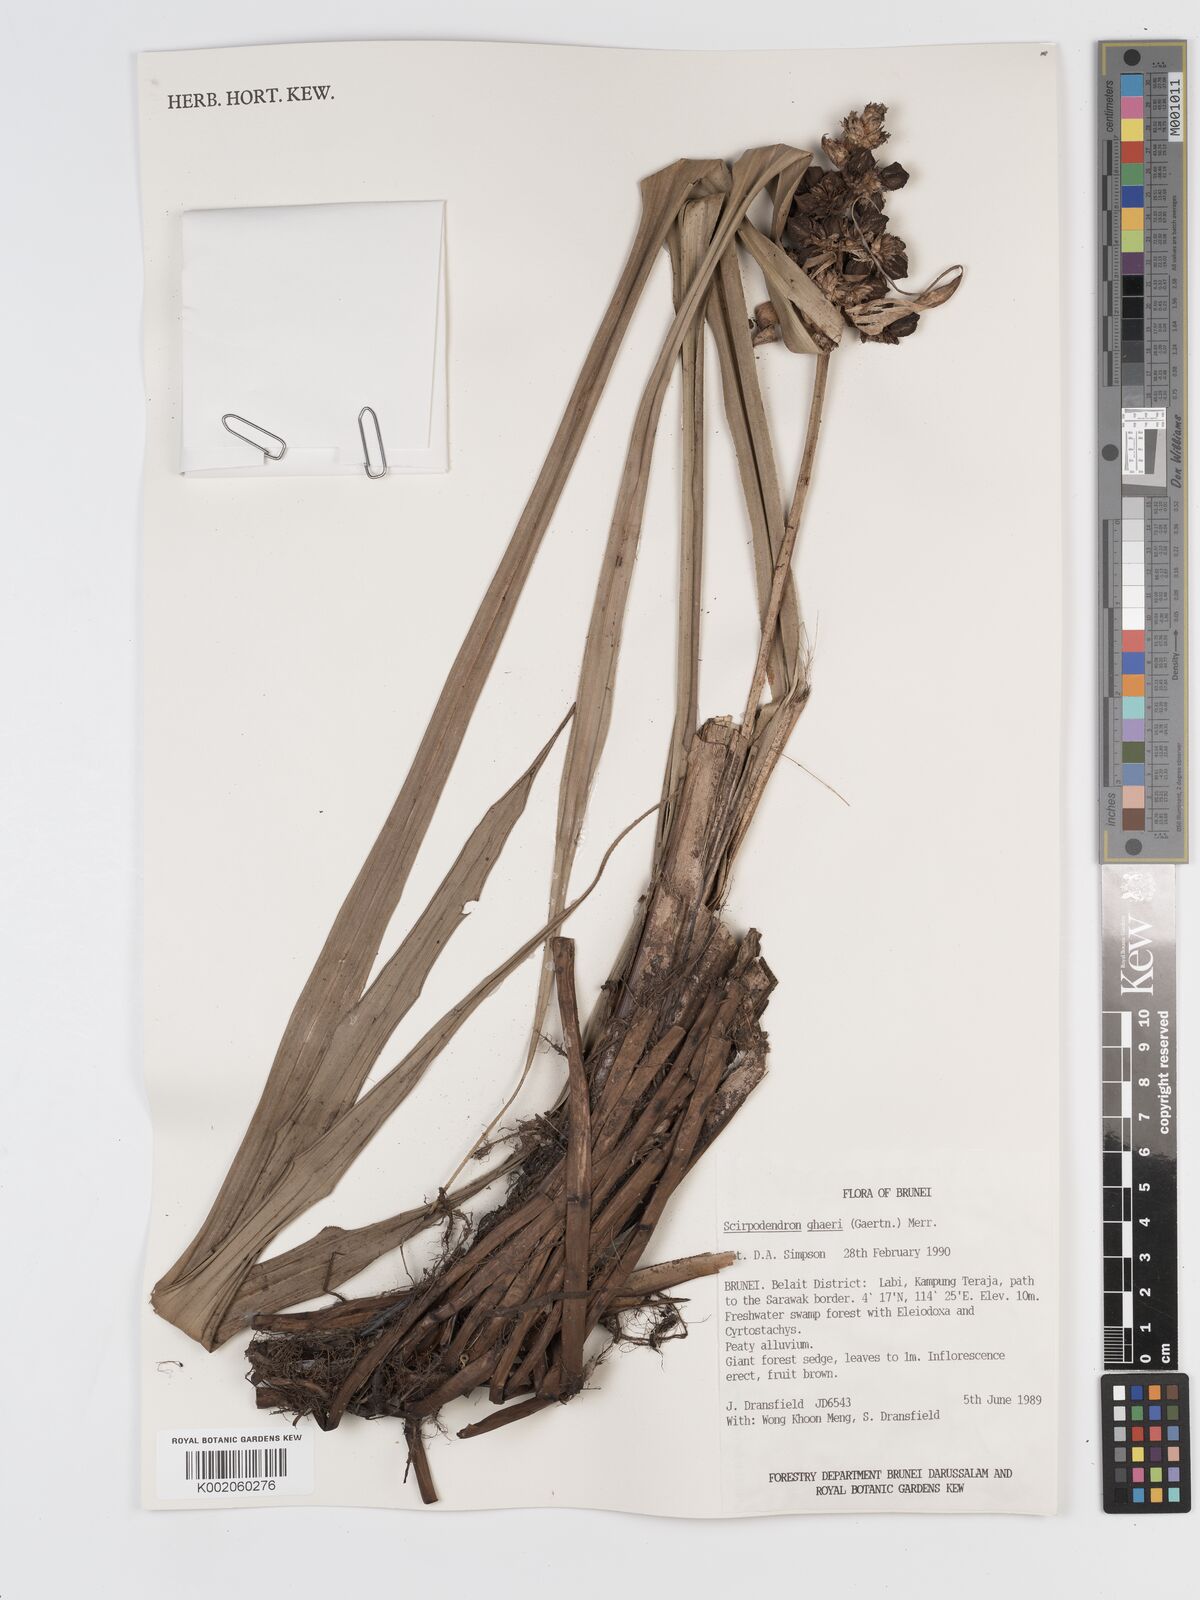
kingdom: Plantae
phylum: Tracheophyta
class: Liliopsida
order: Poales
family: Cyperaceae
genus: Scirpodendron
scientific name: Scirpodendron ghaeri
